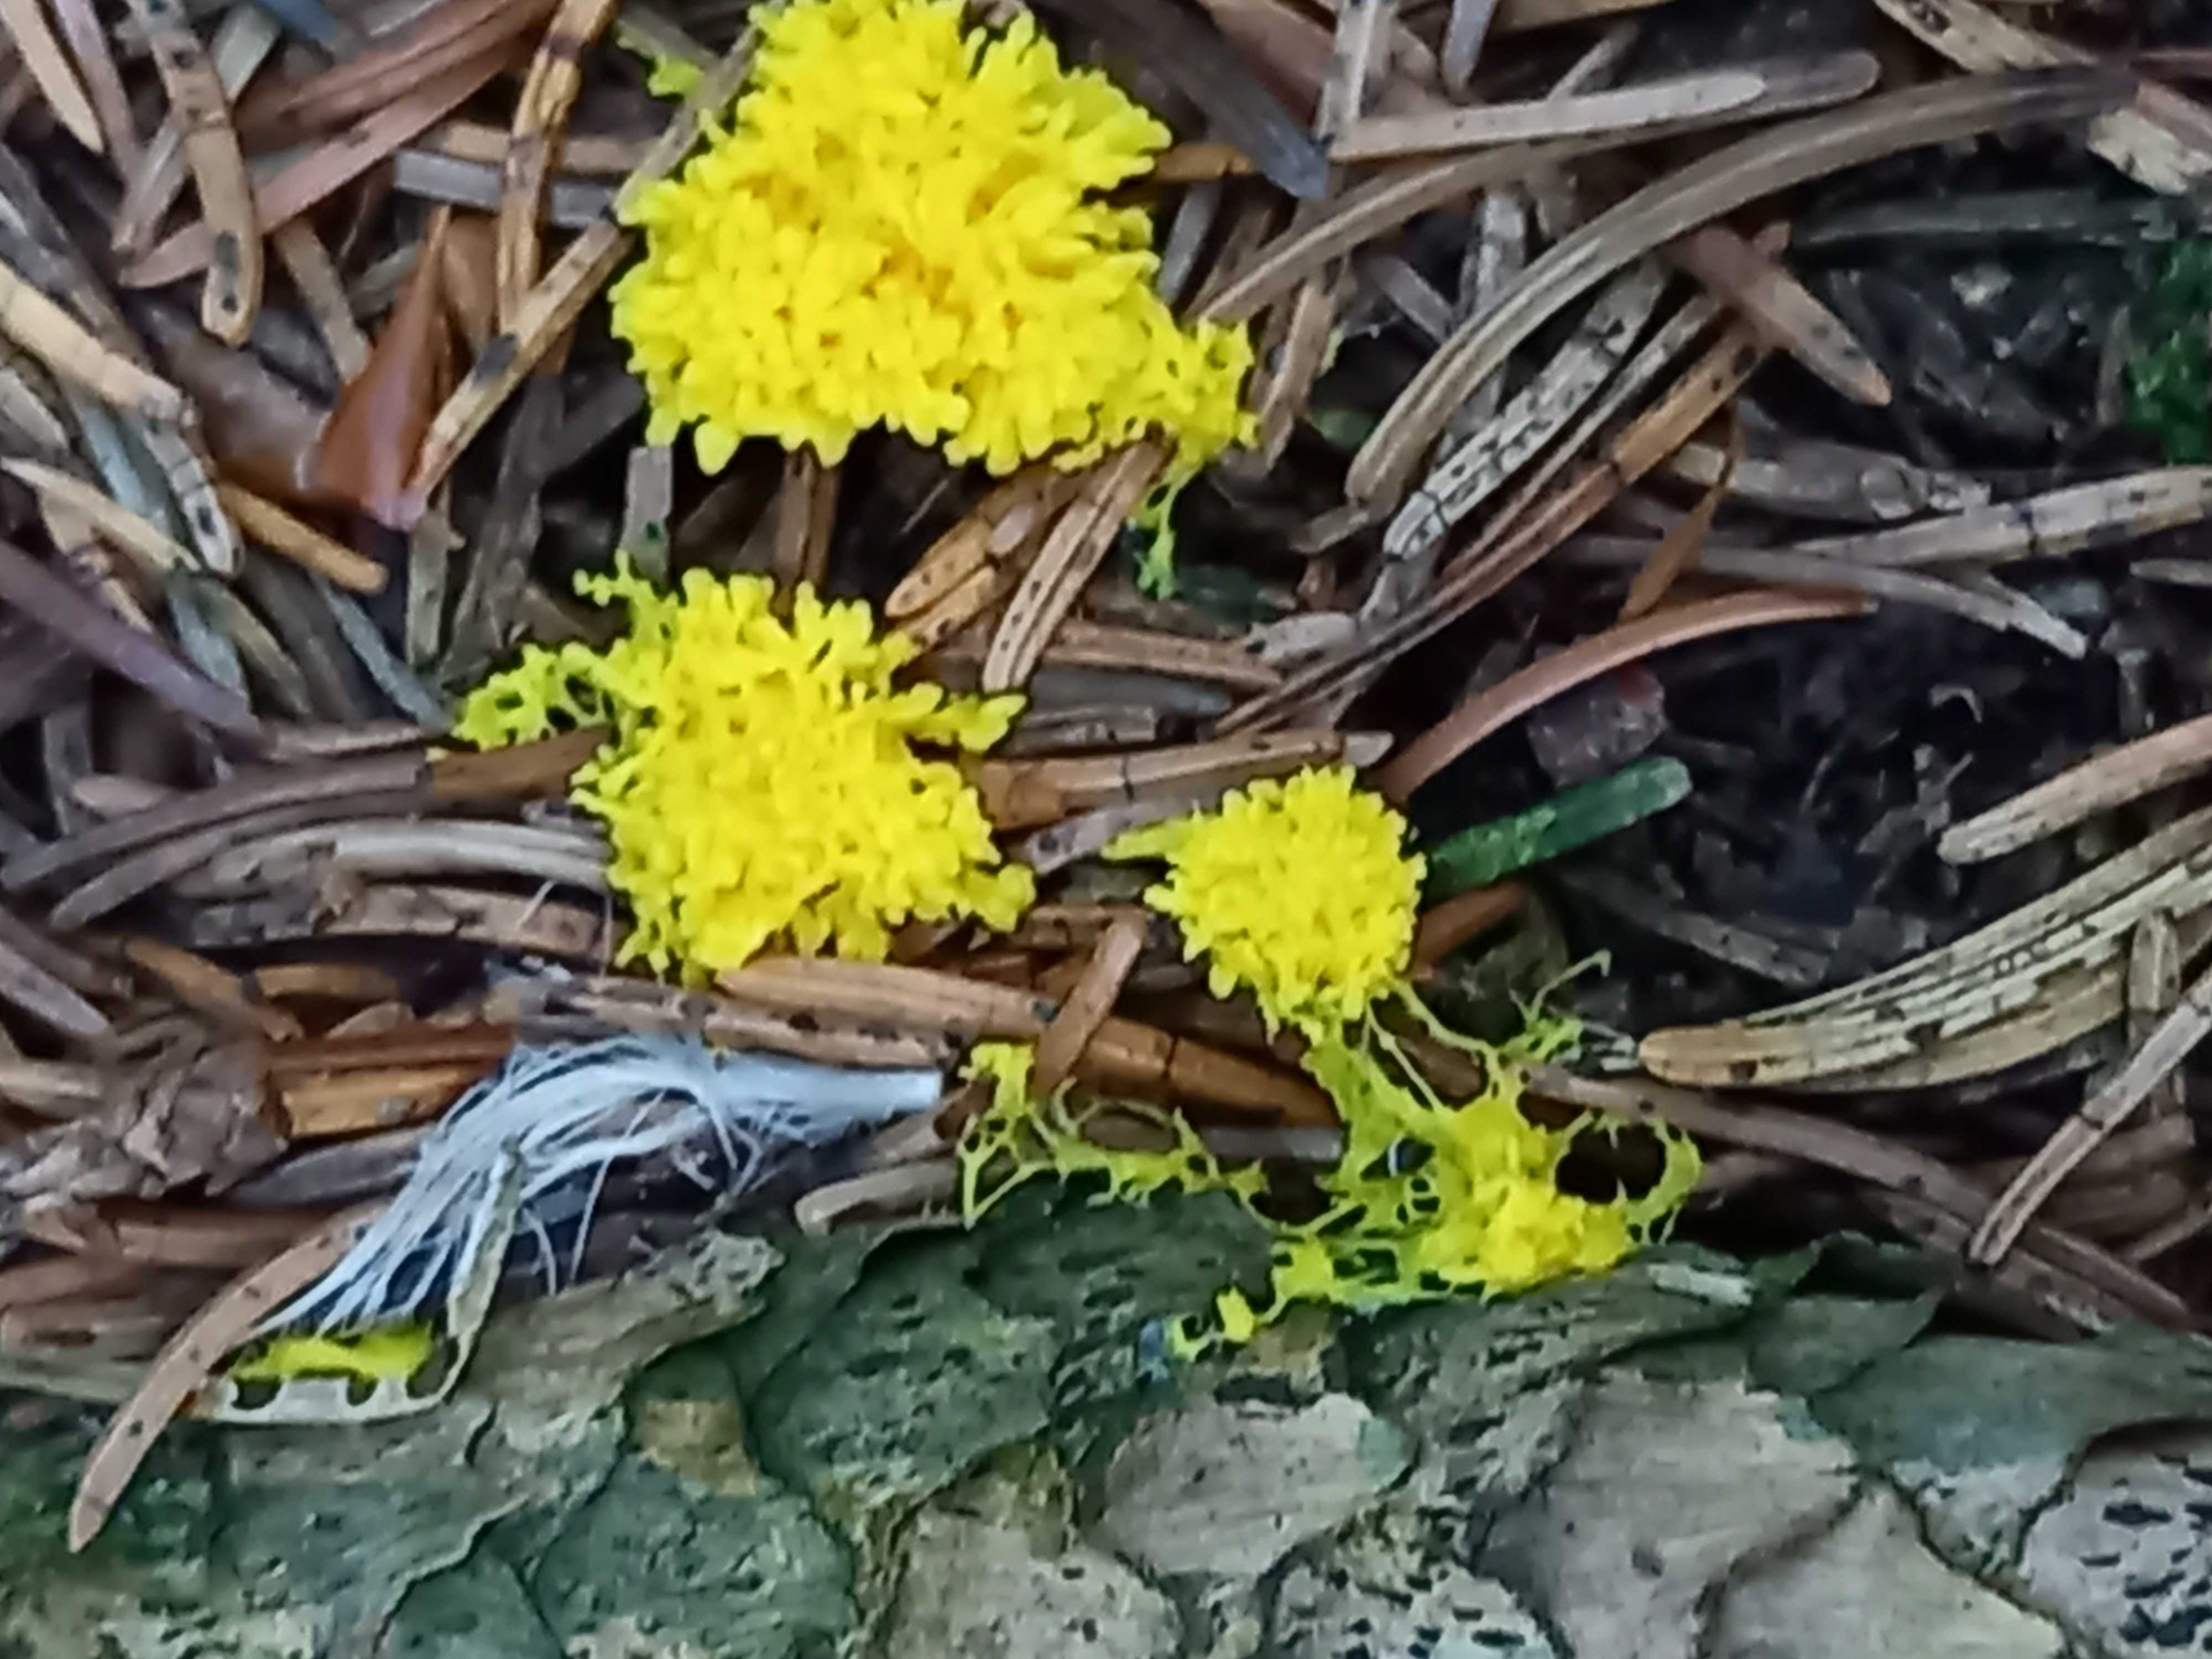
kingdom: Protozoa
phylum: Mycetozoa
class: Myxomycetes
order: Physarales
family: Physaraceae
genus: Fuligo
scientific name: Fuligo septica
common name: gul troldsmør
